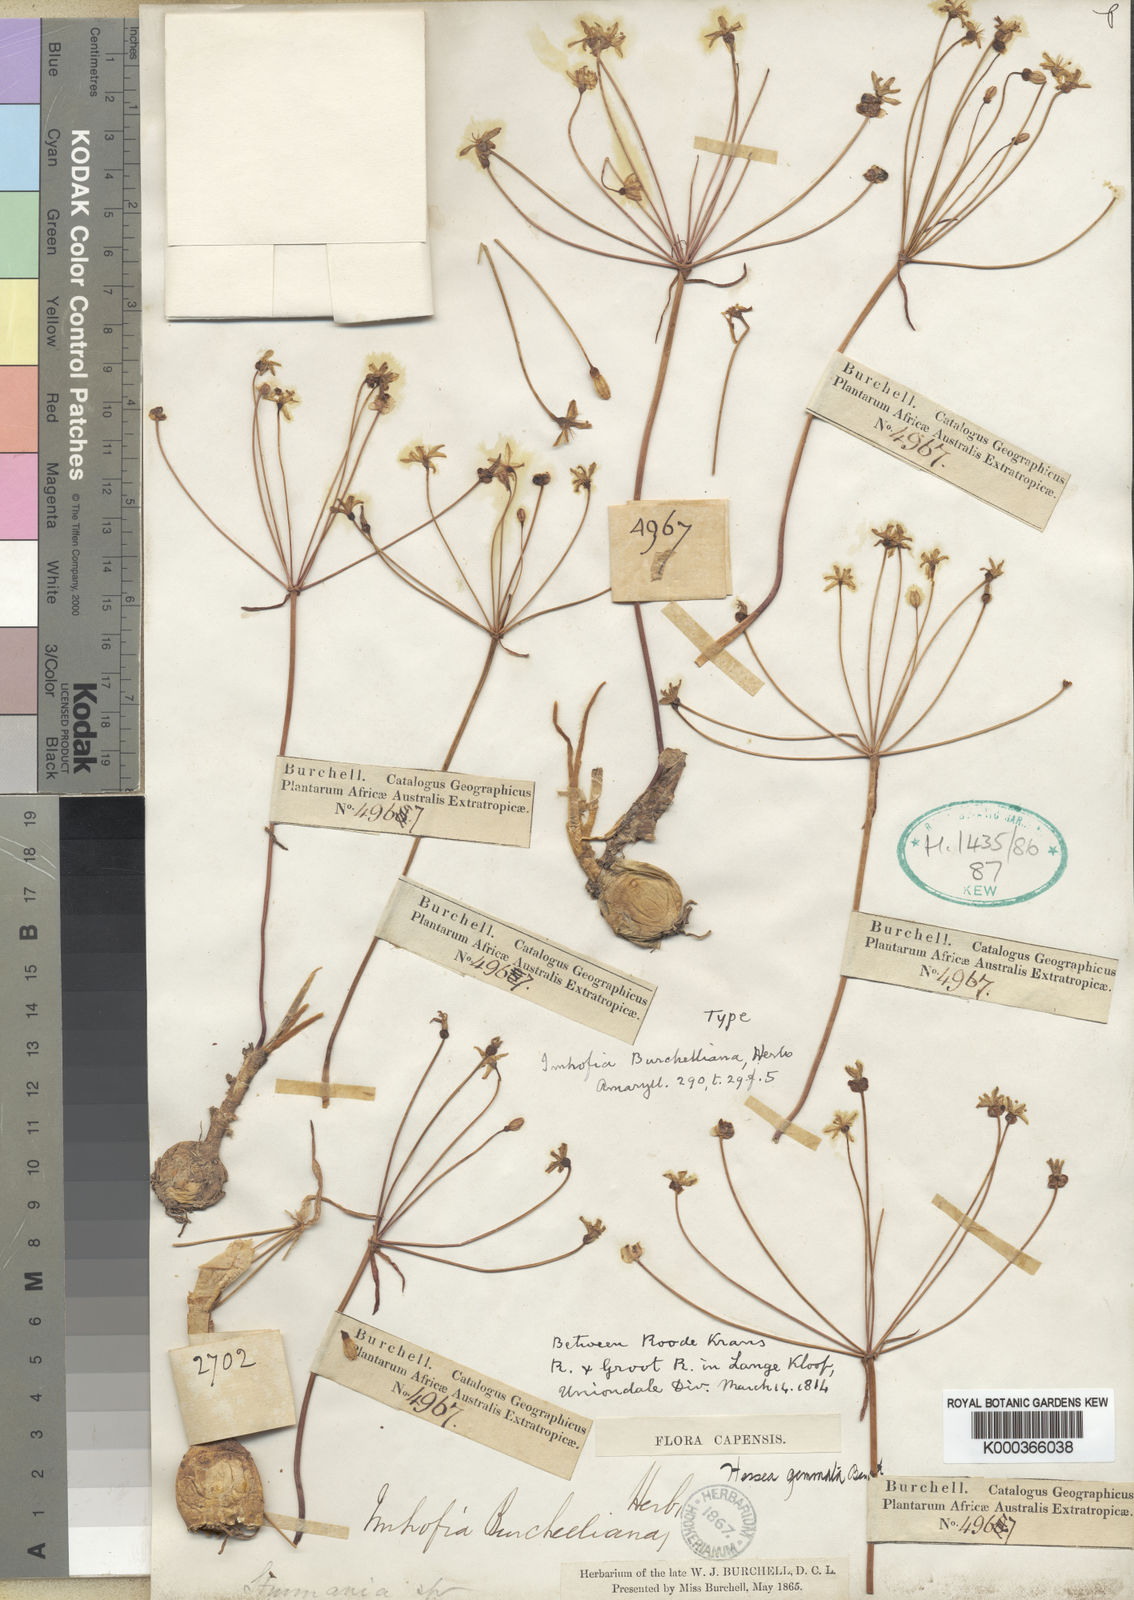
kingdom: Plantae
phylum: Tracheophyta
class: Liliopsida
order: Asparagales
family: Amaryllidaceae
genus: Strumaria
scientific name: Strumaria gemmata
